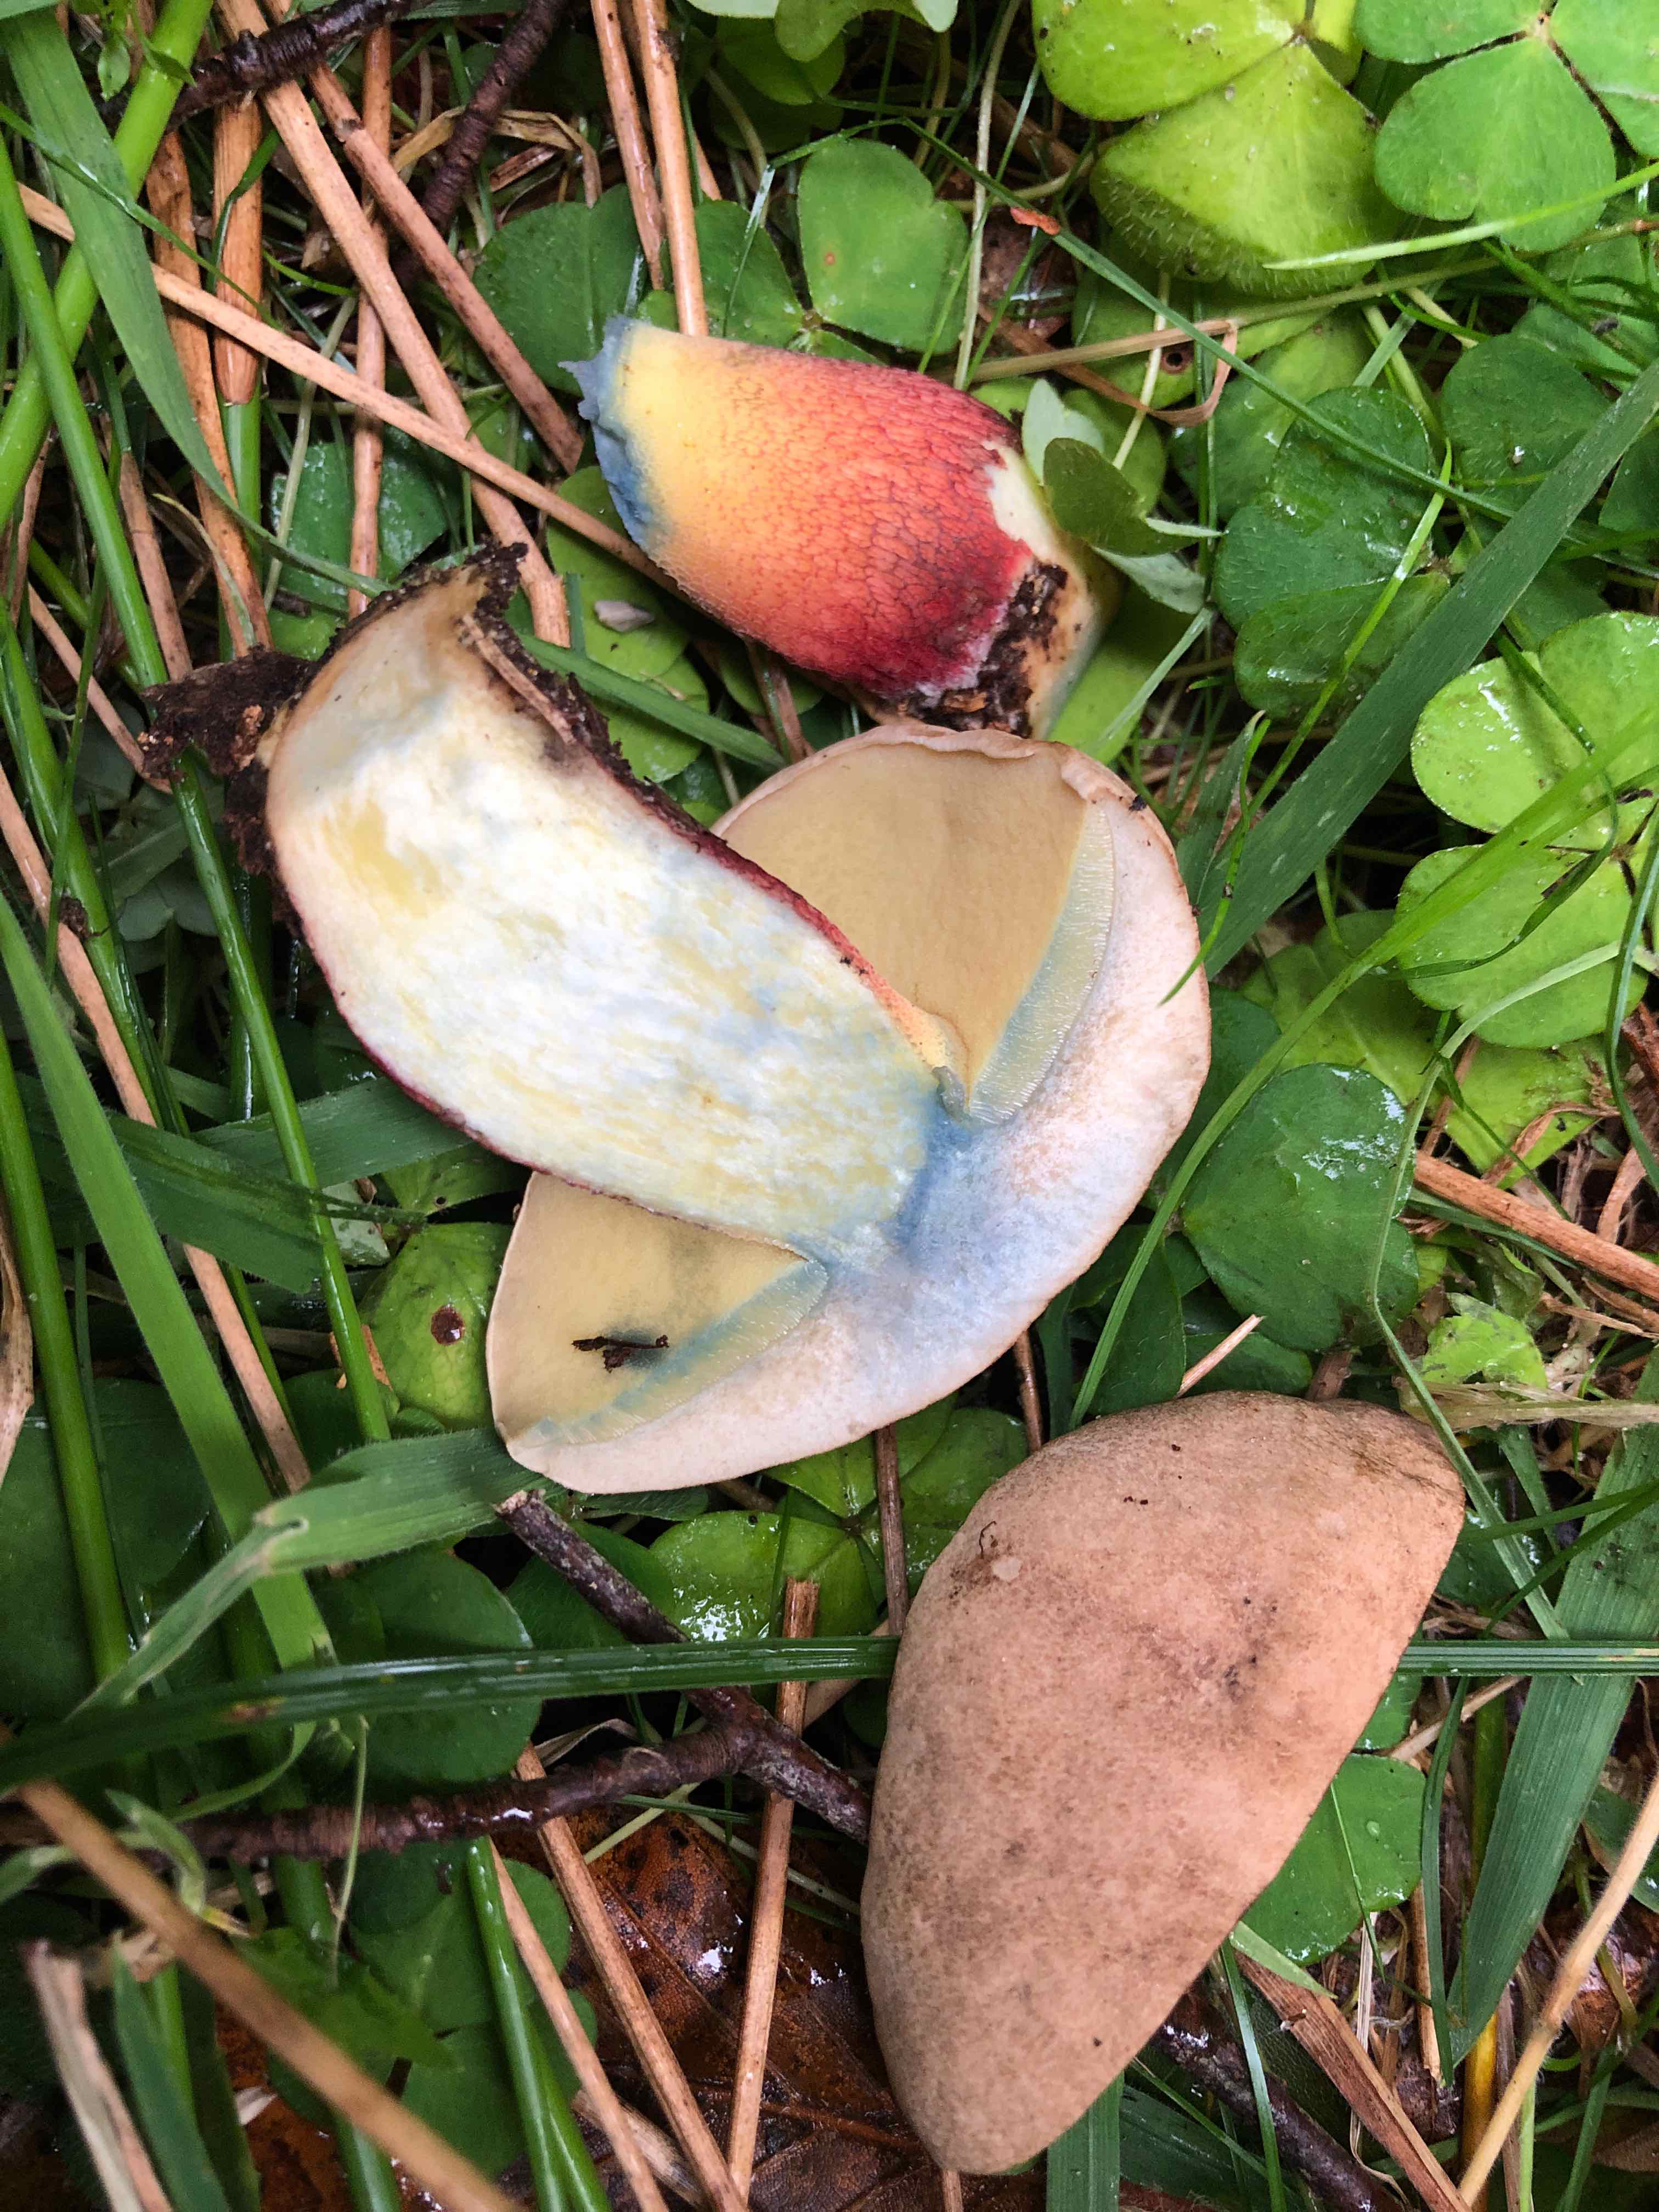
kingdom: Fungi
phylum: Basidiomycota
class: Agaricomycetes
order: Boletales
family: Boletaceae
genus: Caloboletus
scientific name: Caloboletus calopus
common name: skønfodet rørhat
